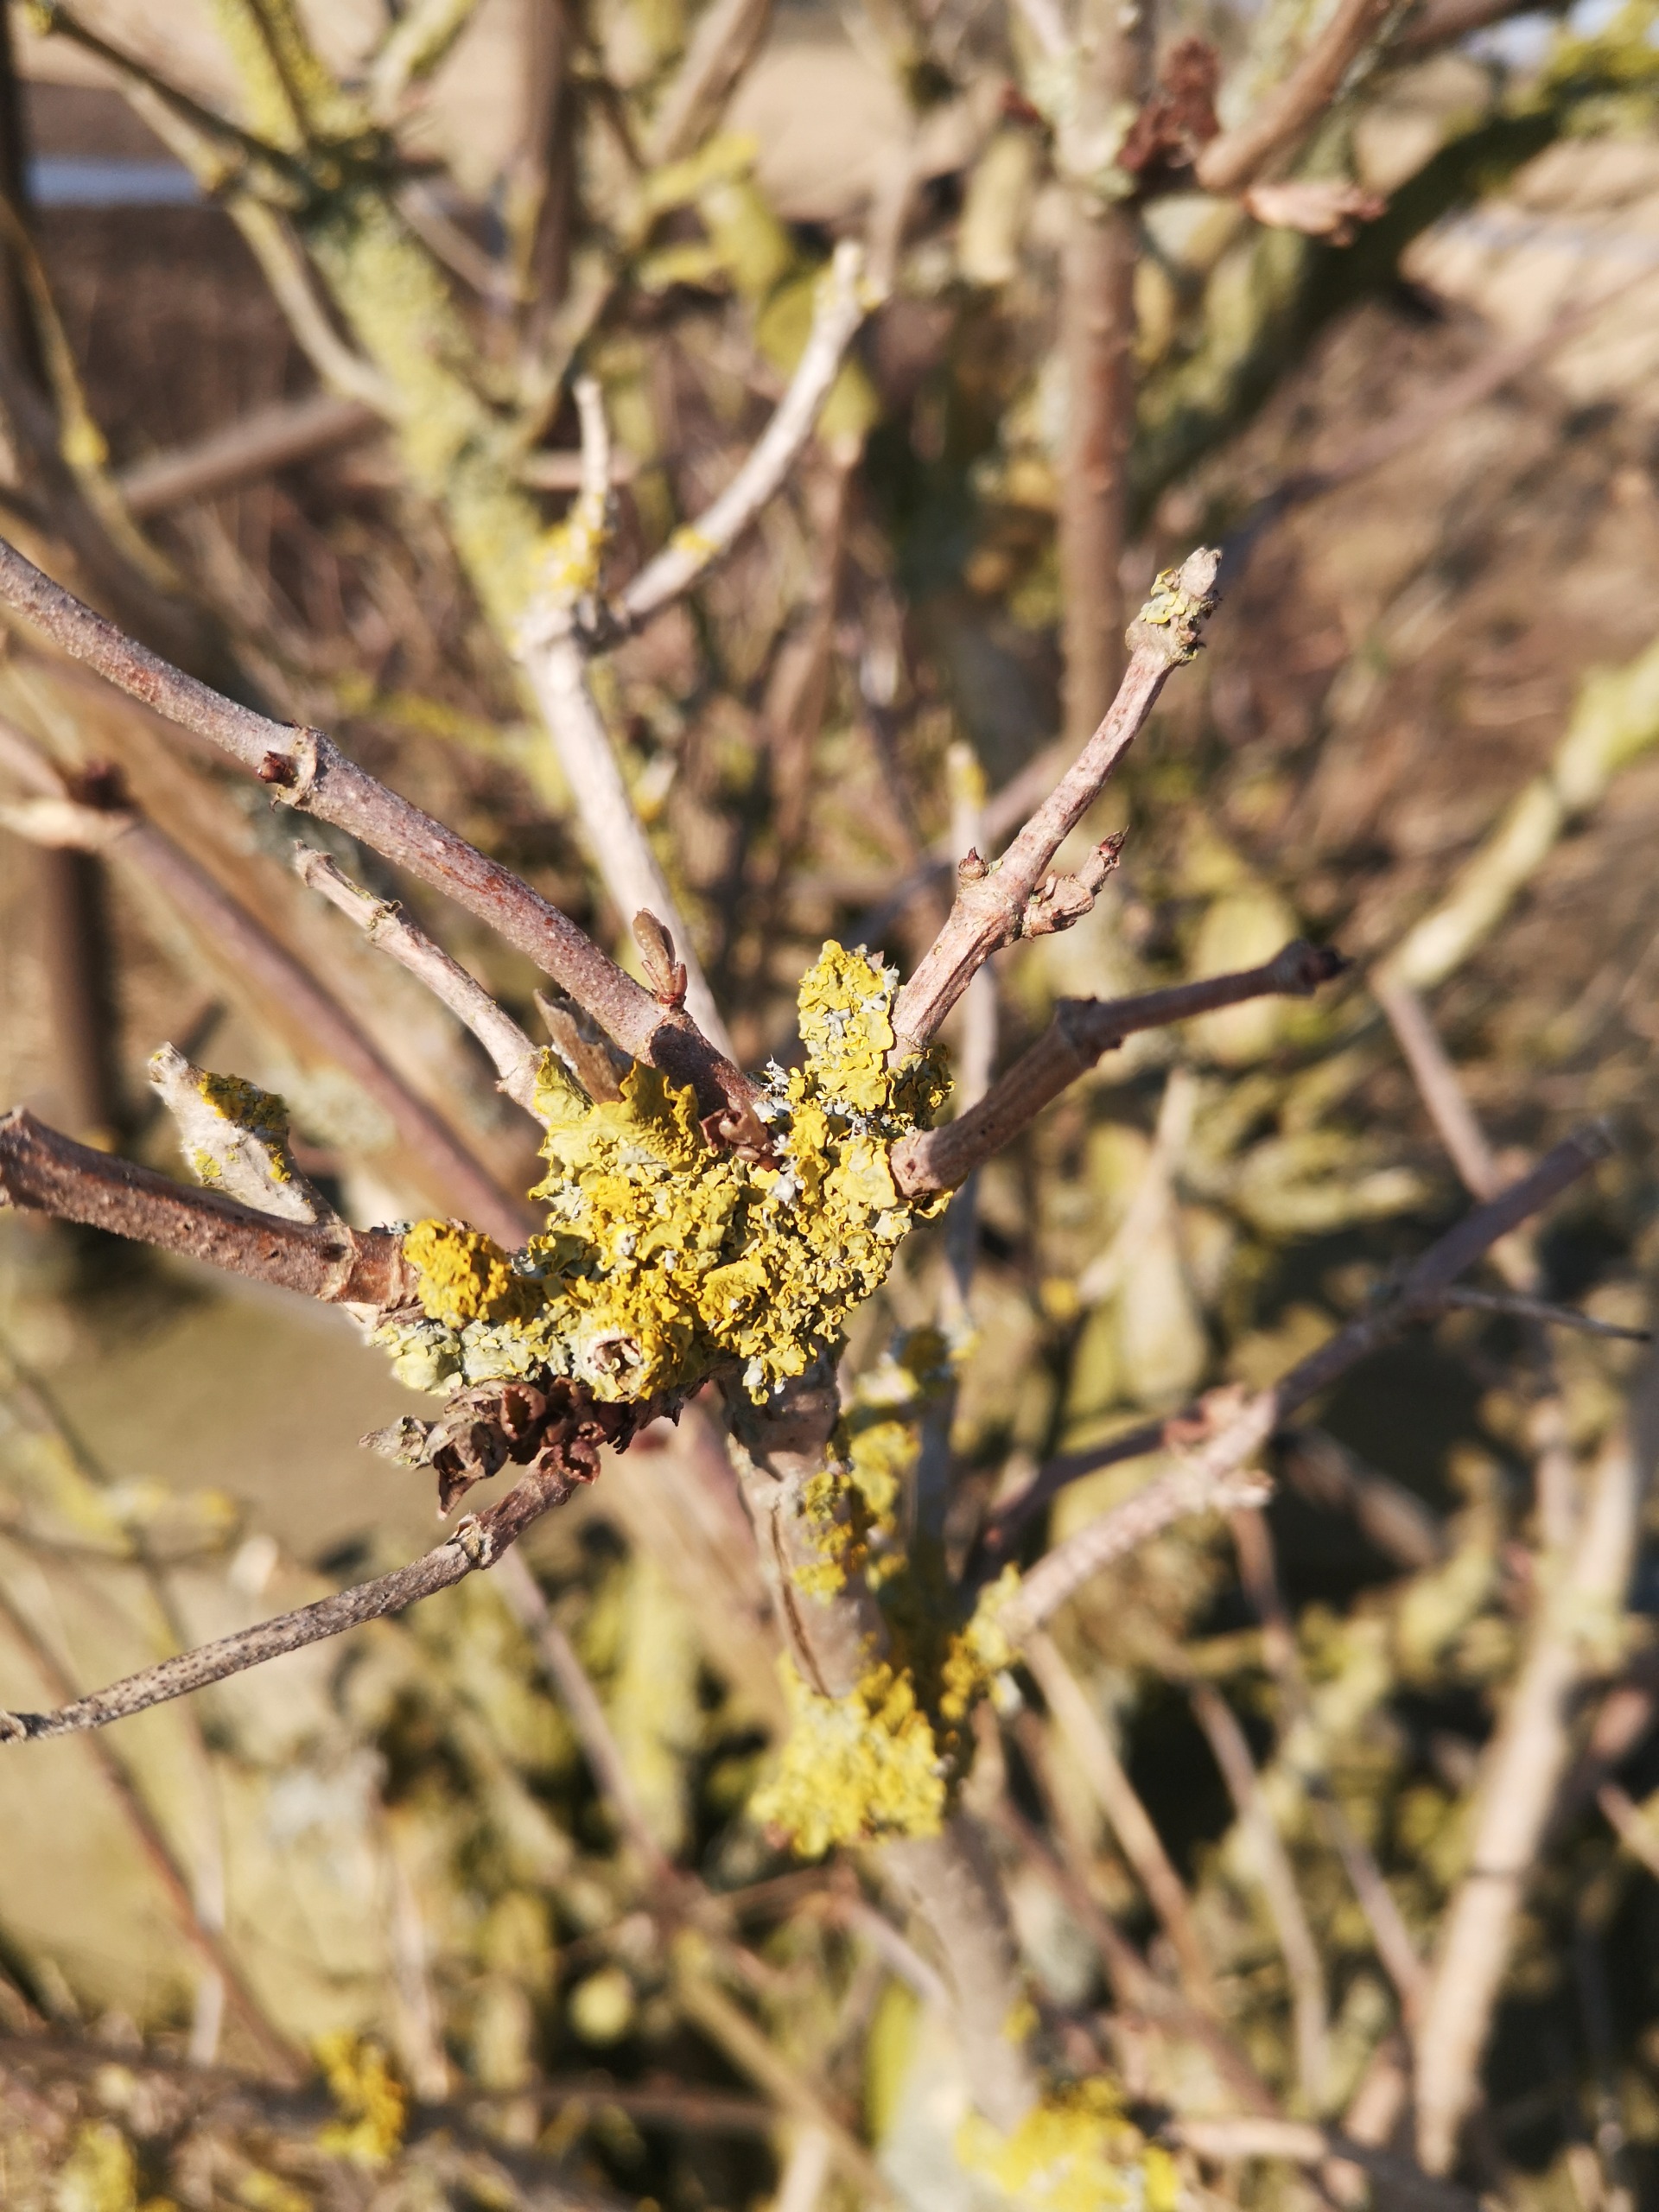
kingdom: Fungi
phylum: Ascomycota
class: Lecanoromycetes
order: Teloschistales
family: Teloschistaceae
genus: Xanthoria
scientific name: Xanthoria parietina
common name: Almindelig væggelav
